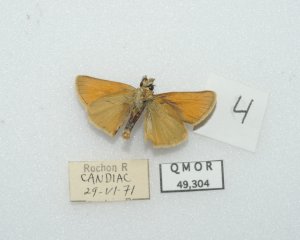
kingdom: Animalia
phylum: Arthropoda
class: Insecta
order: Lepidoptera
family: Hesperiidae
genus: Thymelicus
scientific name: Thymelicus lineola
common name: European Skipper
